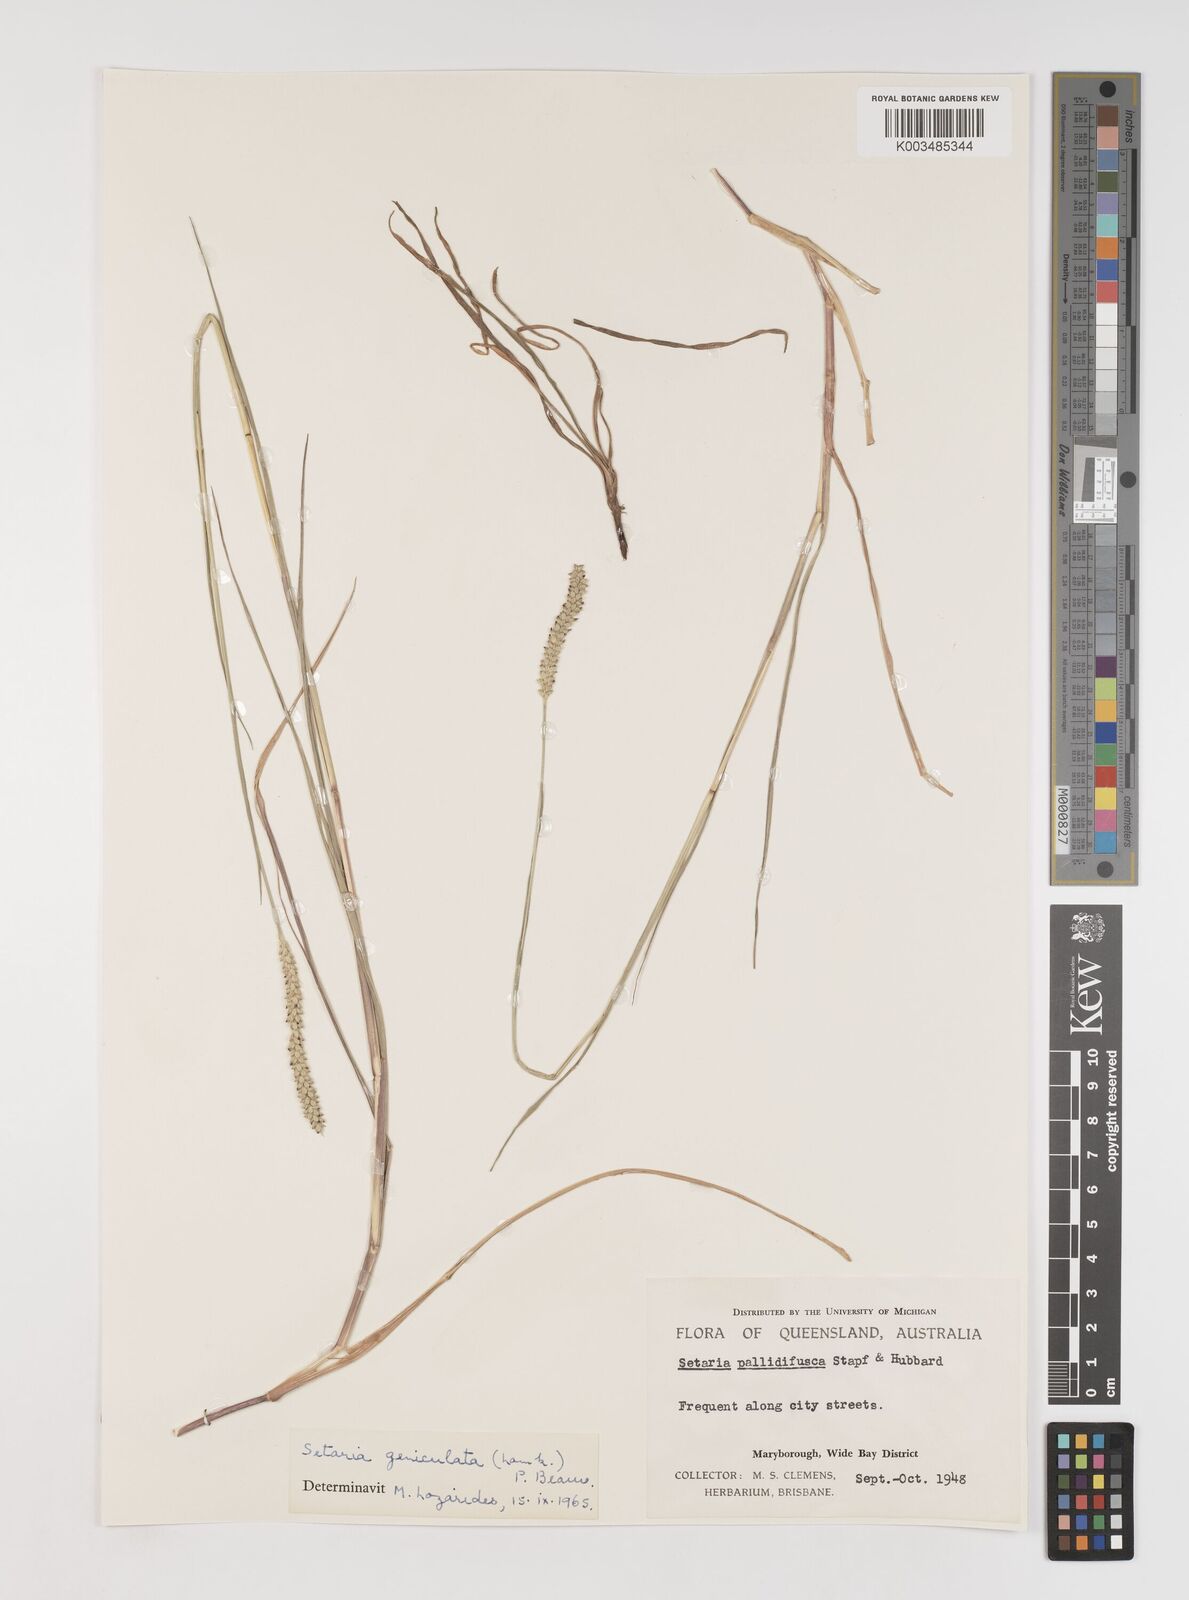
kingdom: Plantae
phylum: Tracheophyta
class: Liliopsida
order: Poales
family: Poaceae
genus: Setaria
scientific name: Setaria parviflora
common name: Knotroot bristle-grass
